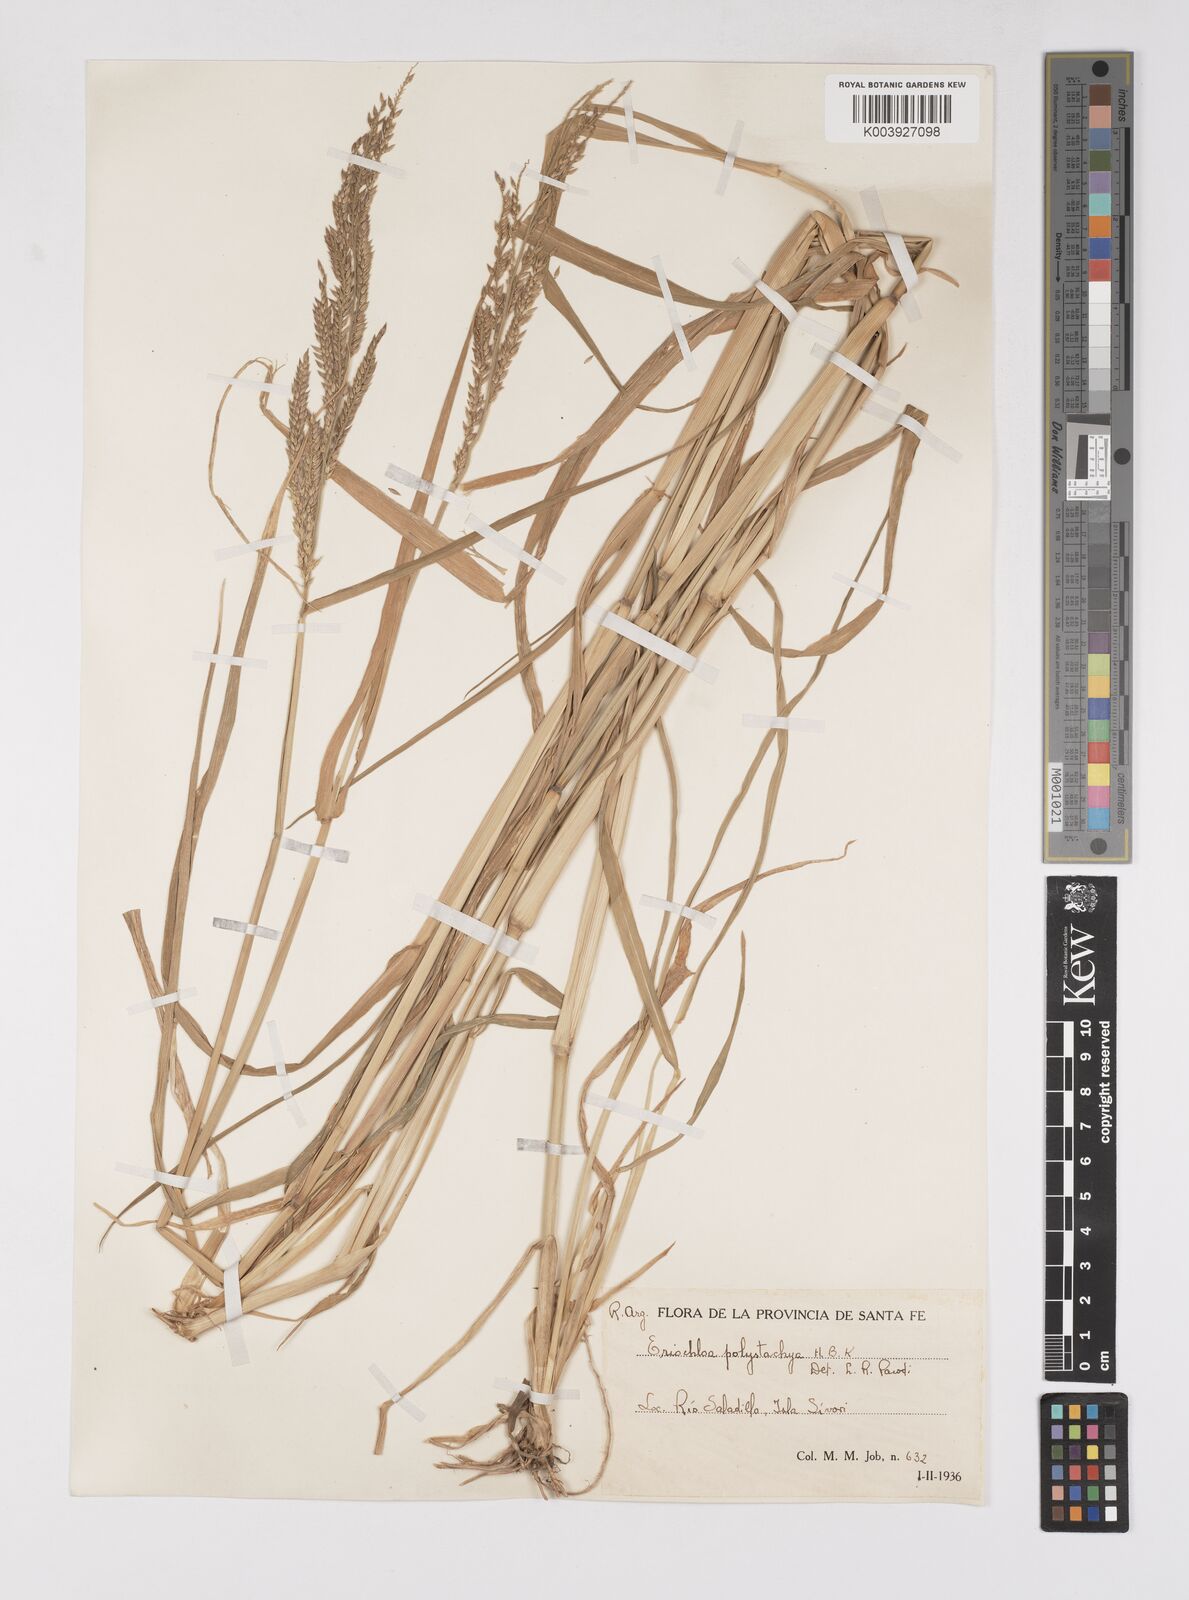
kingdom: Plantae
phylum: Tracheophyta
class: Liliopsida
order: Poales
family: Poaceae
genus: Eriochloa
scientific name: Eriochloa punctata
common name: Louisiana cupgrass
